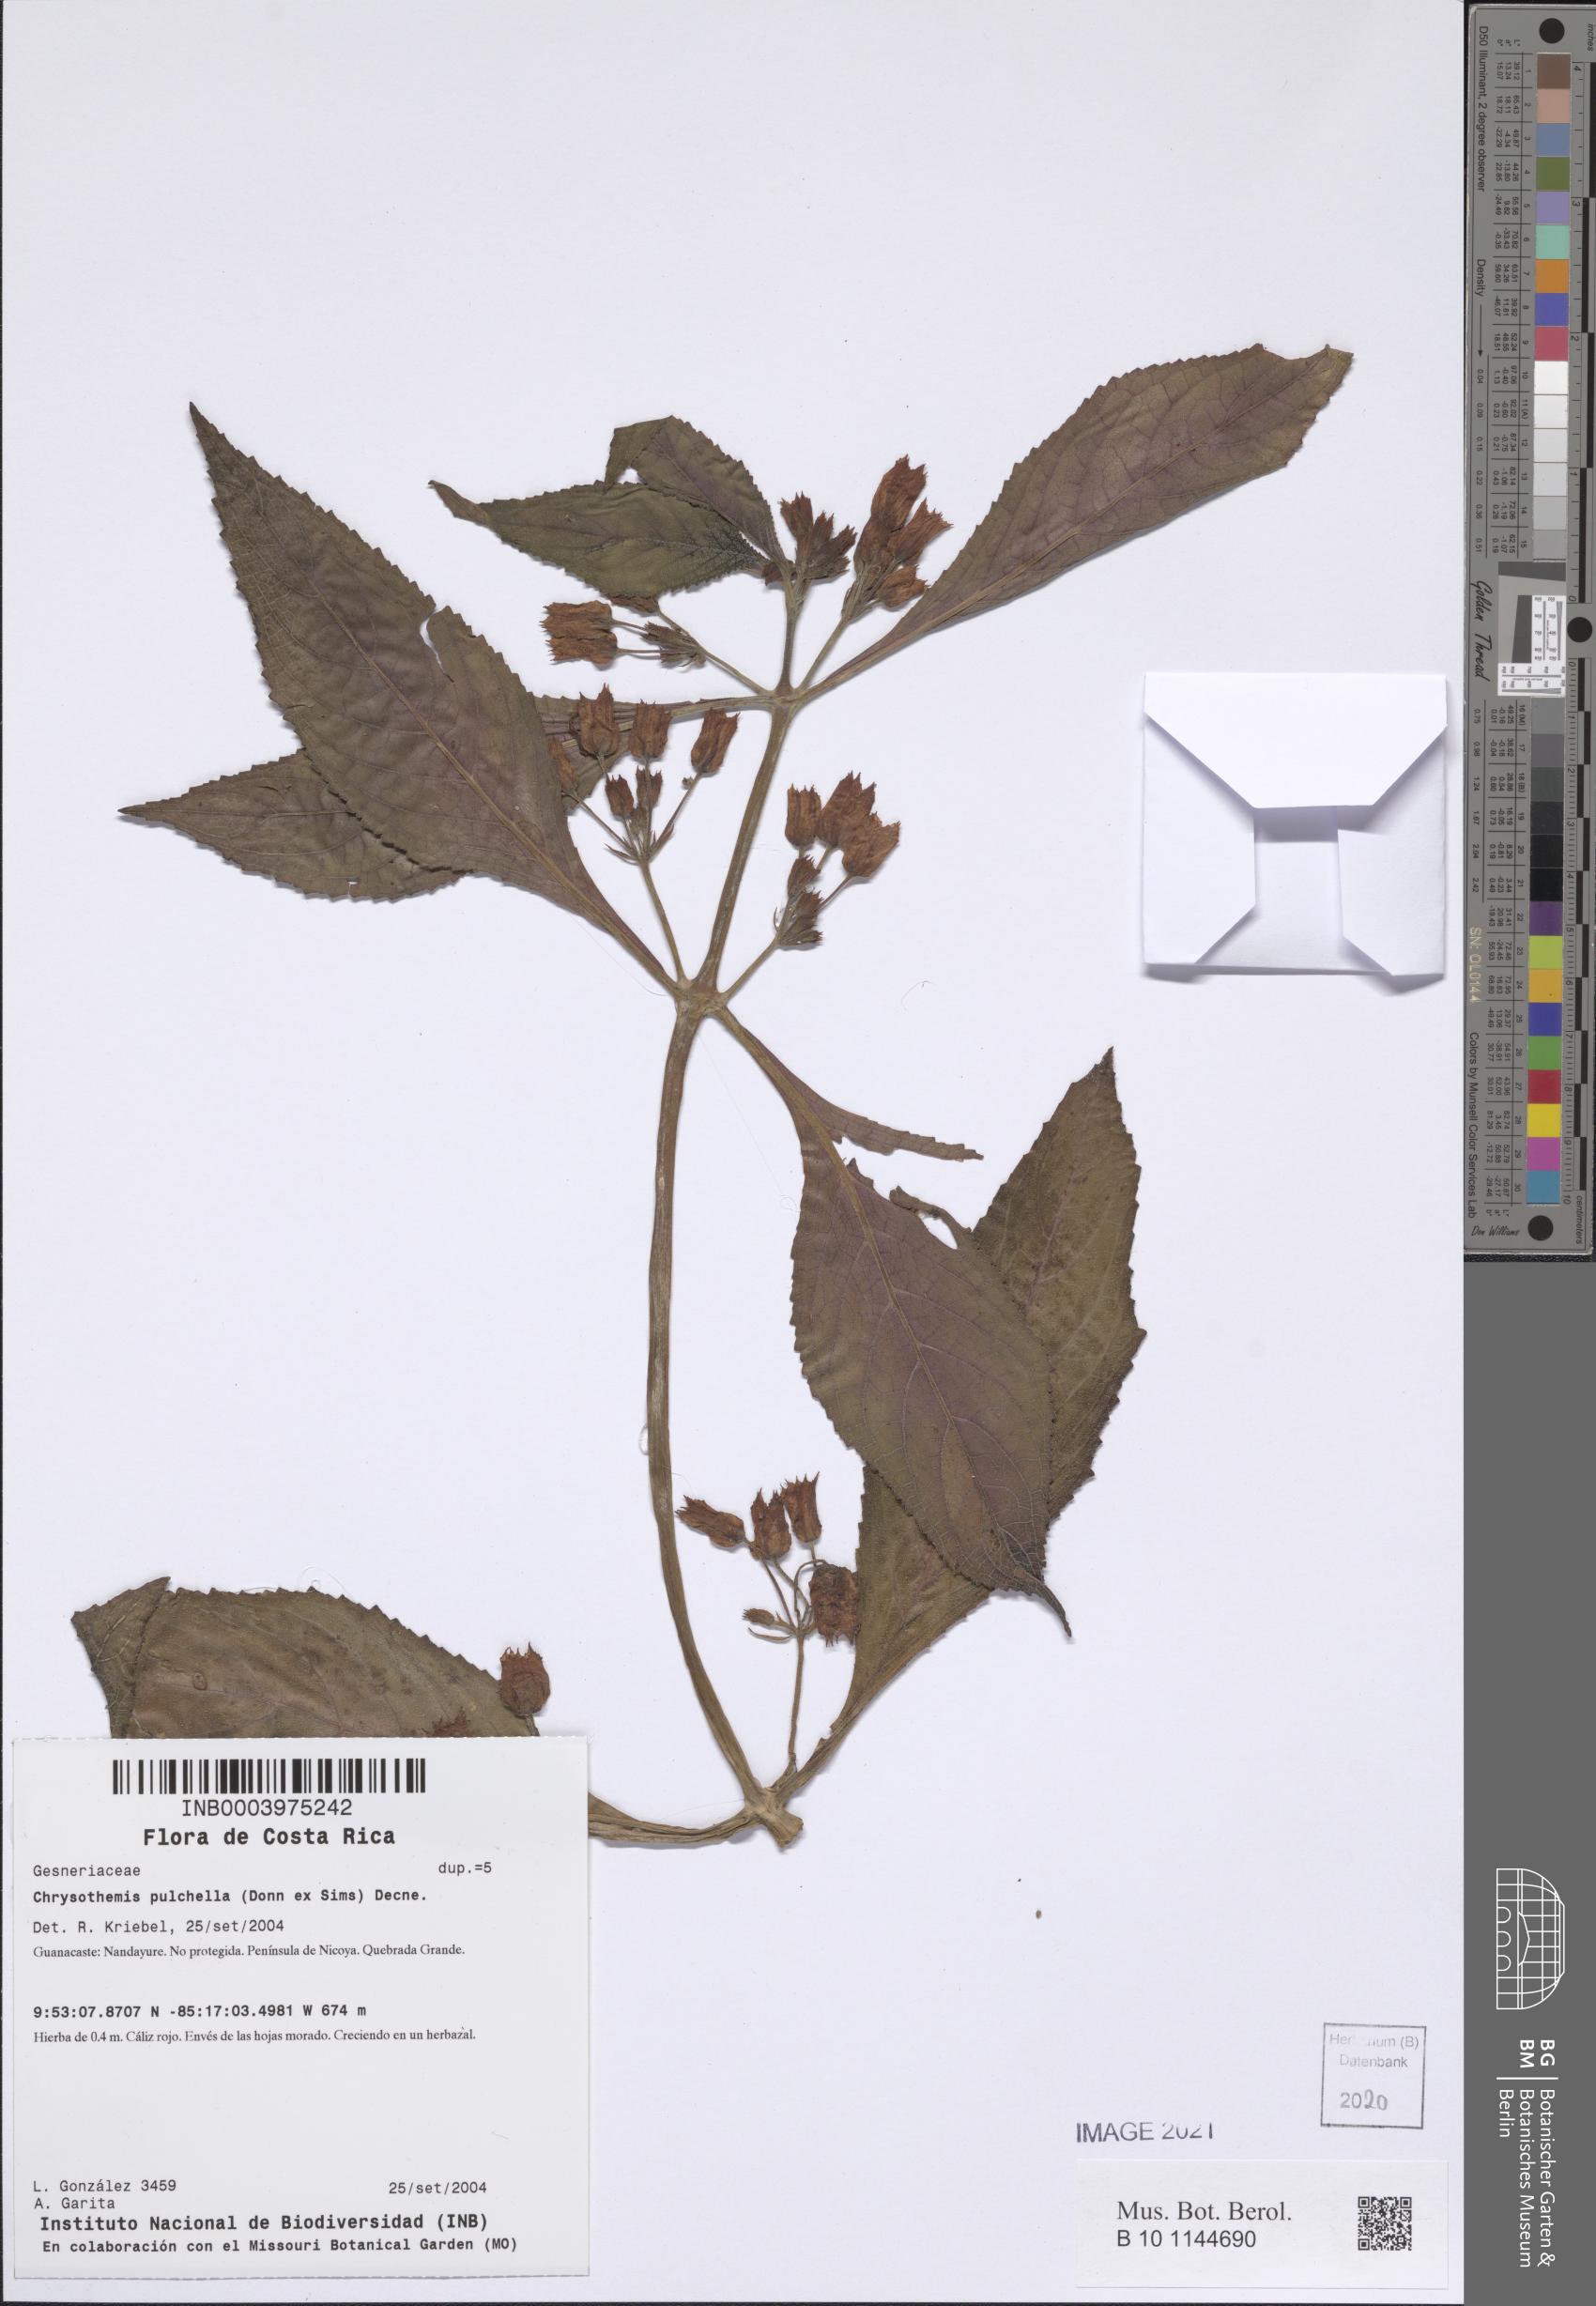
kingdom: Plantae
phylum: Tracheophyta
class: Magnoliopsida
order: Lamiales
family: Gesneriaceae
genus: Chrysothemis
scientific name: Chrysothemis pulchella
